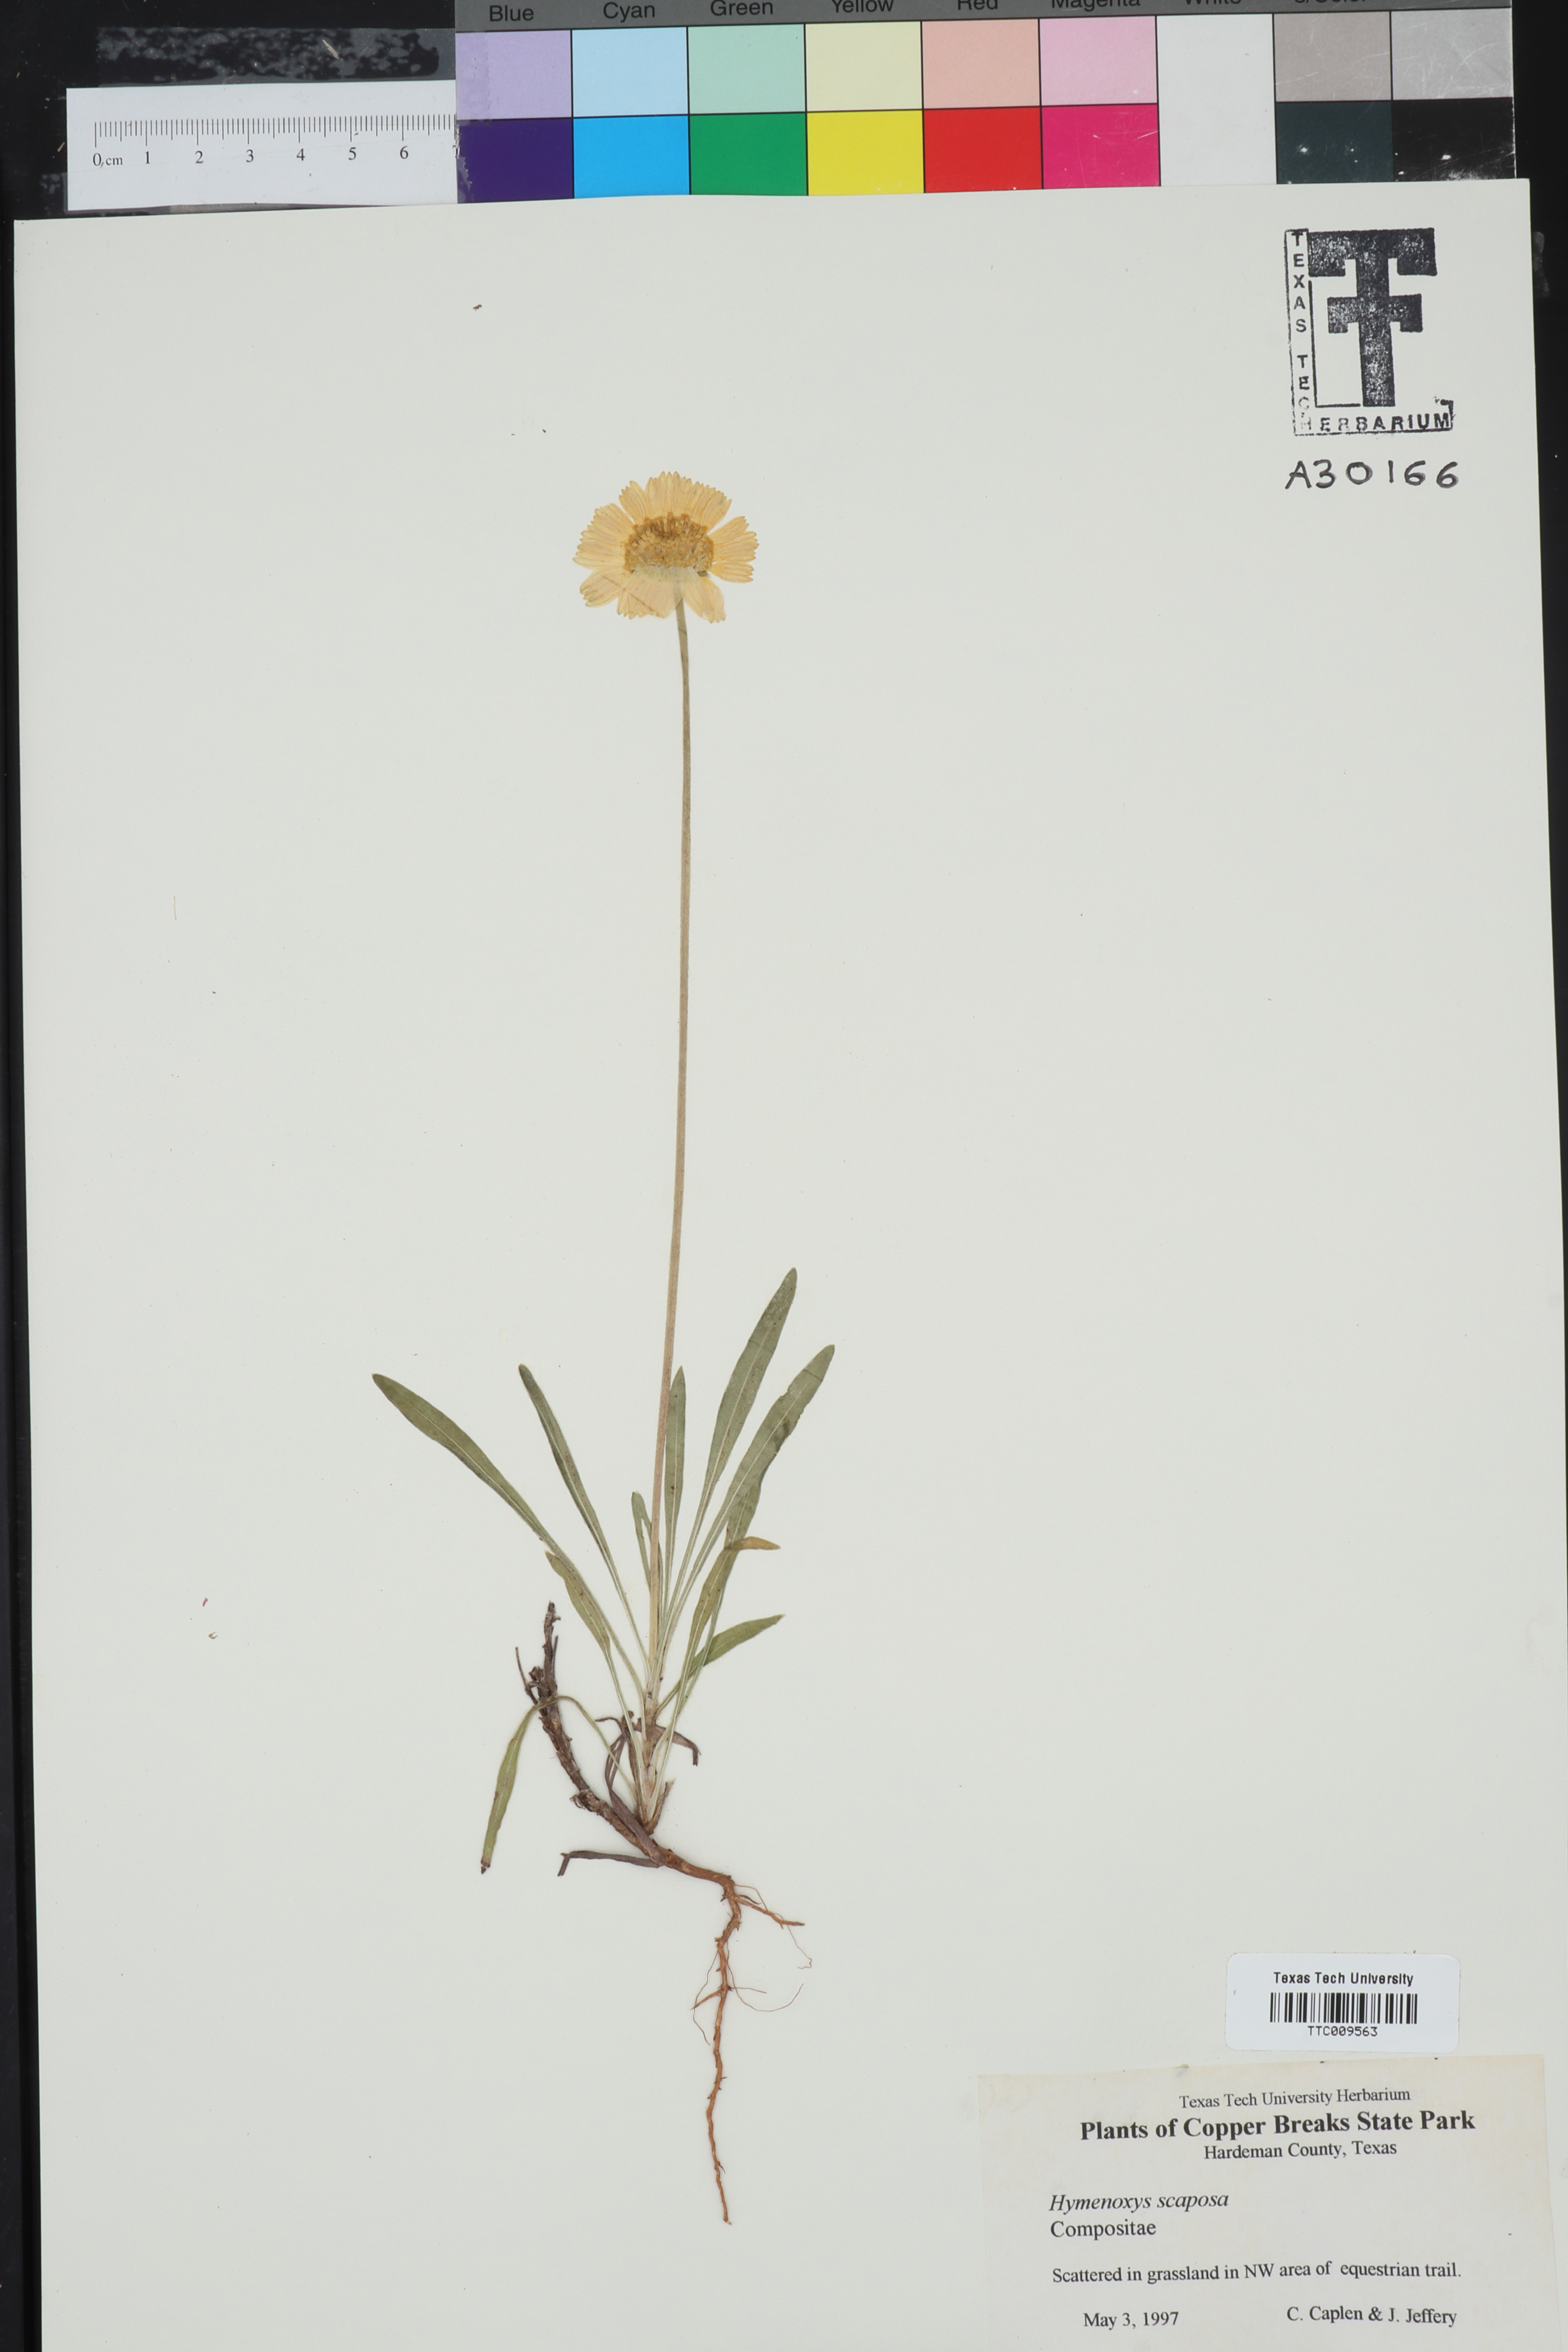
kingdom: Plantae
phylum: Tracheophyta
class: Magnoliopsida
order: Asterales
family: Asteraceae
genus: Tetraneuris
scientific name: Tetraneuris scaposa
